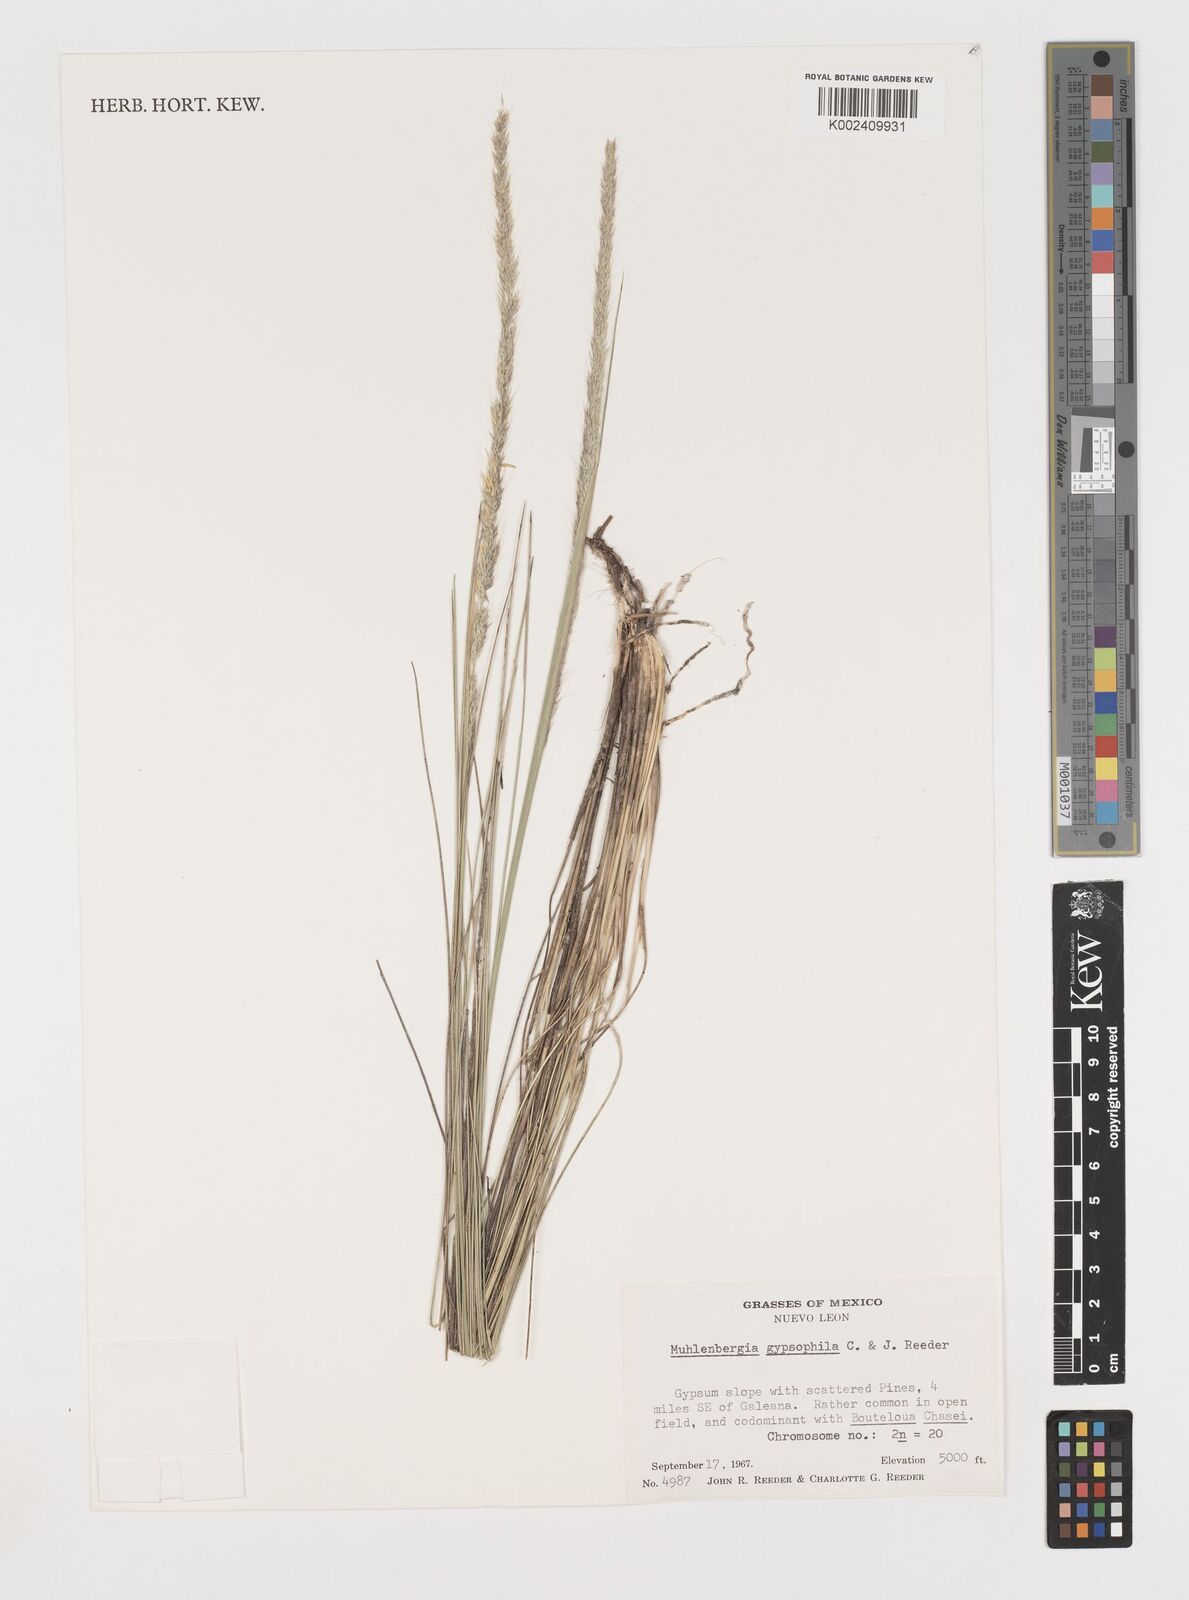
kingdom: Plantae
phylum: Tracheophyta
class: Liliopsida
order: Poales
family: Poaceae
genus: Muhlenbergia
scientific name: Muhlenbergia gypsophila
